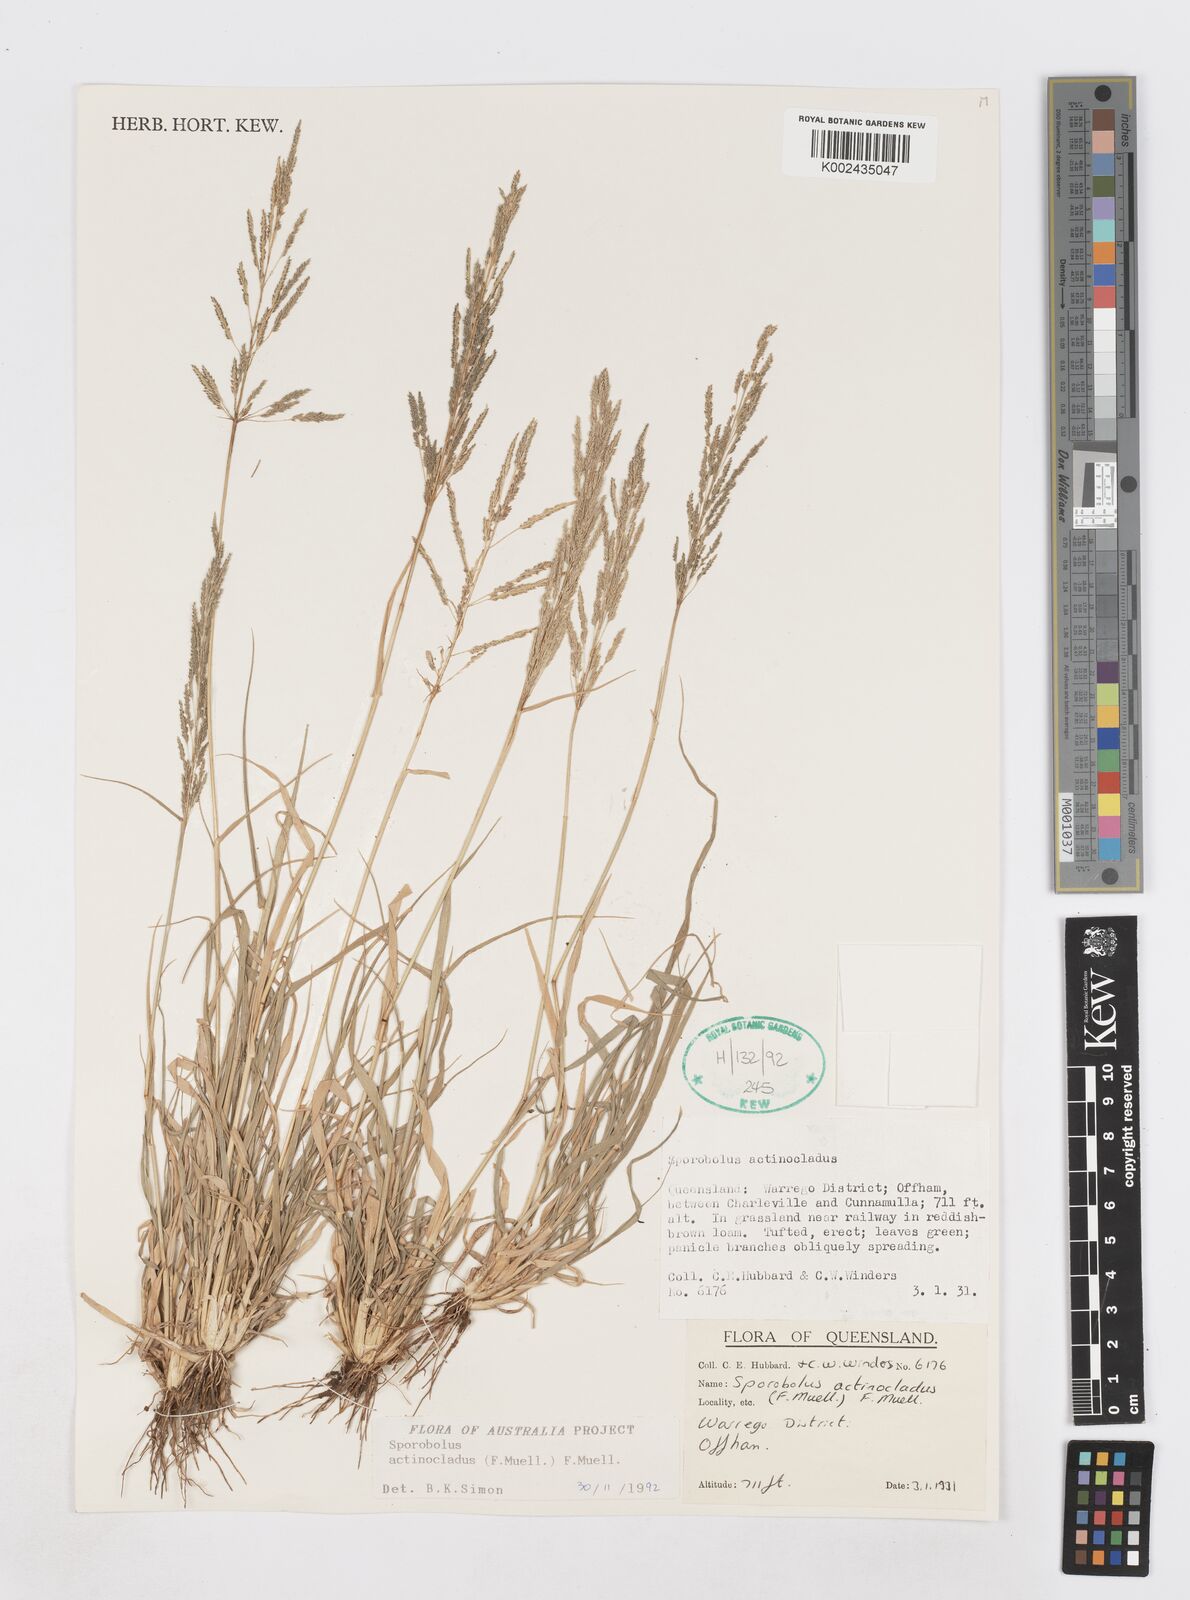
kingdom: Plantae
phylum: Tracheophyta
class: Liliopsida
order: Poales
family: Poaceae
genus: Sporobolus
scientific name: Sporobolus actinocladus
